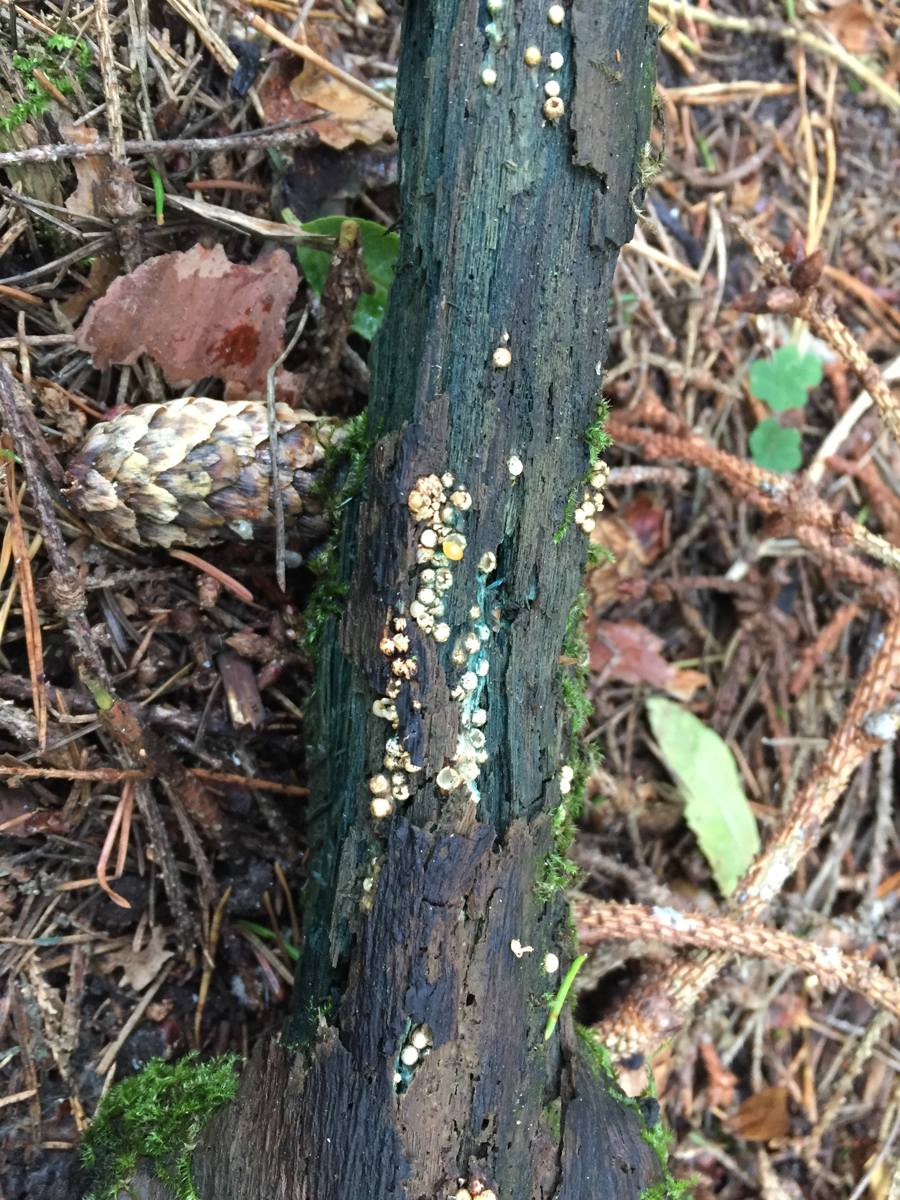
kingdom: Fungi
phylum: Basidiomycota
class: Agaricomycetes
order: Geastrales
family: Geastraceae
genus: Sphaerobolus
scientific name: Sphaerobolus stellatus
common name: Cannon fungus
